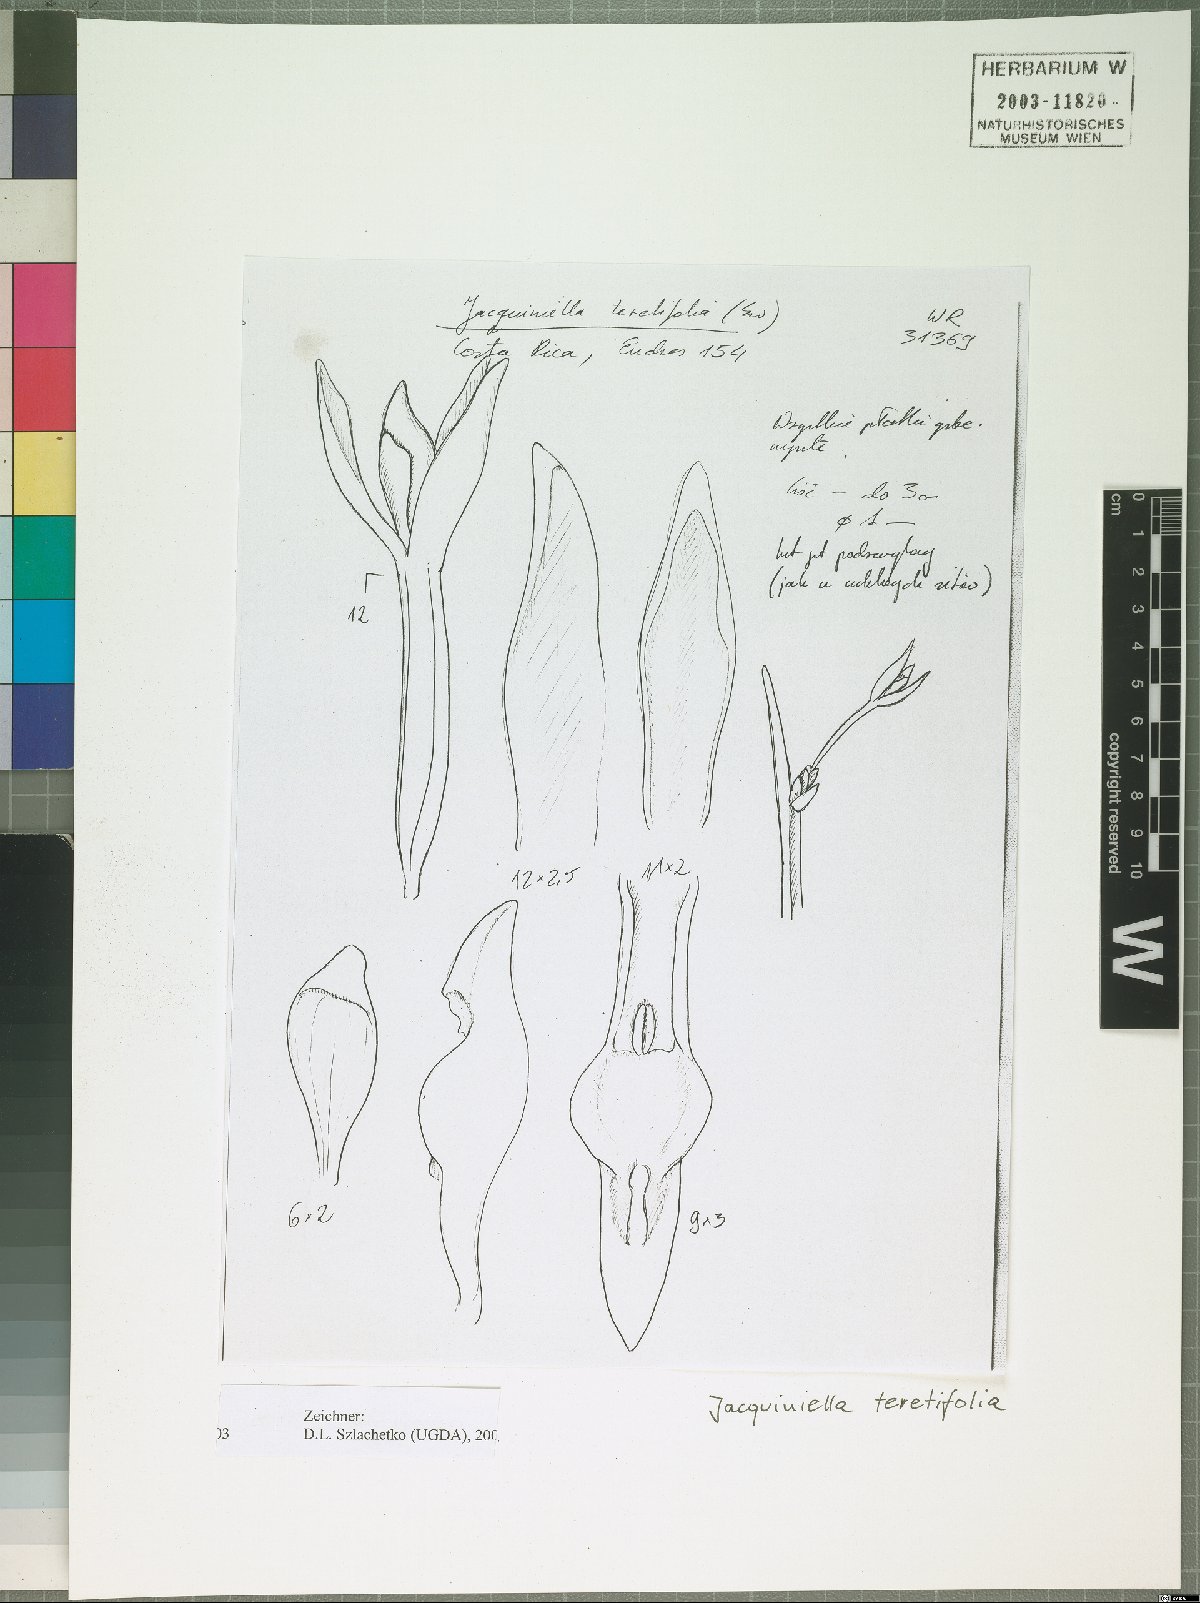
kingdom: Plantae
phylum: Tracheophyta
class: Liliopsida
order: Asparagales
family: Orchidaceae
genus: Jacquiniella
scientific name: Jacquiniella teretifolia
